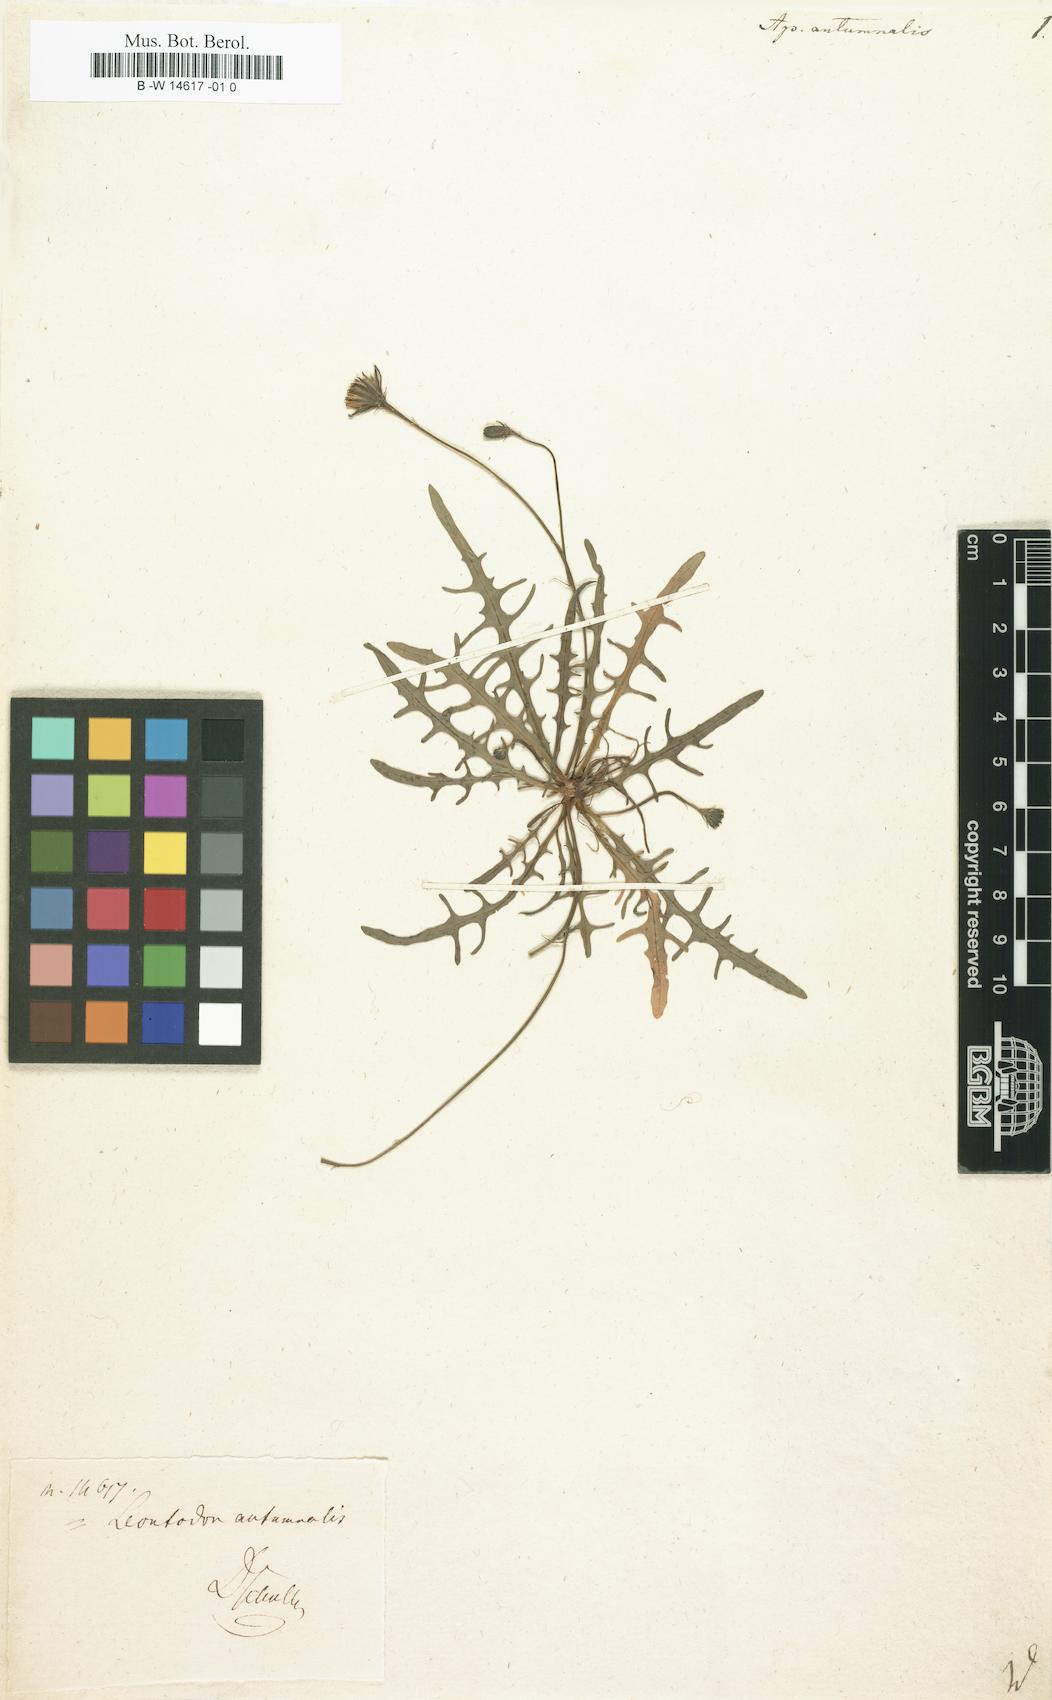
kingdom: Plantae
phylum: Tracheophyta
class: Magnoliopsida
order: Asterales
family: Asteraceae
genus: Scorzoneroides
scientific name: Scorzoneroides autumnalis
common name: Autumn hawkbit
